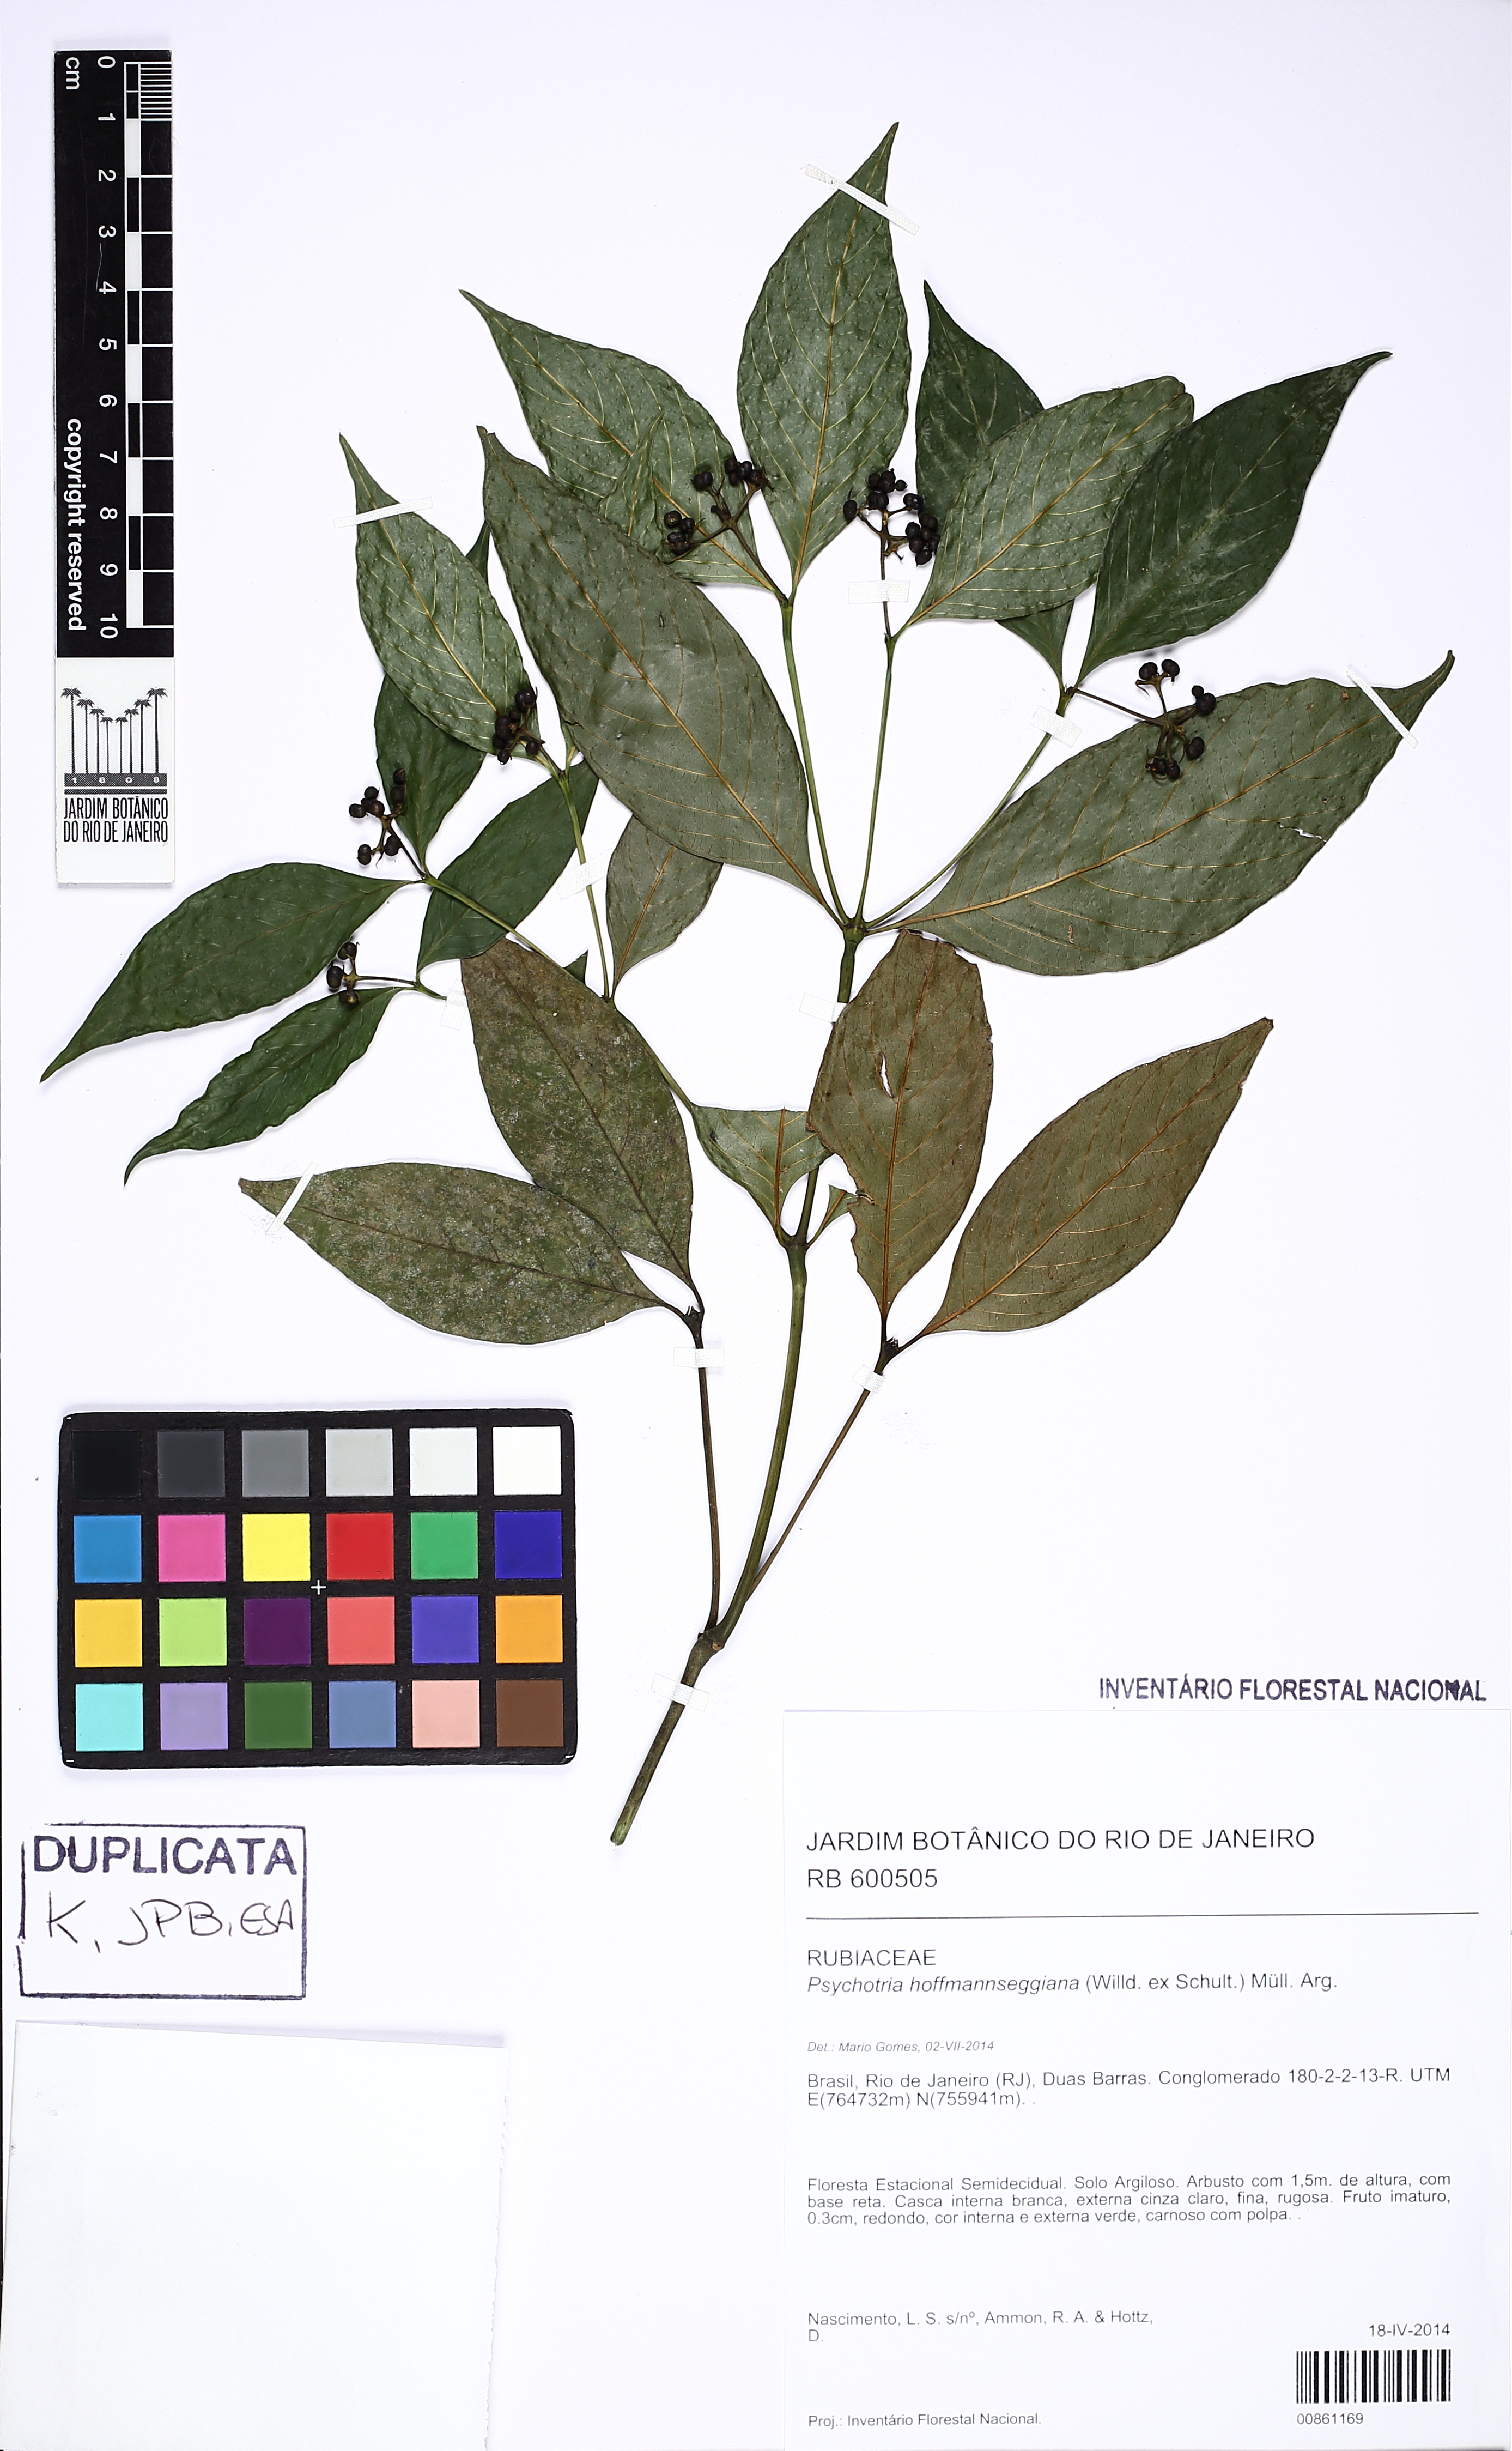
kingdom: Plantae
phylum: Tracheophyta
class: Magnoliopsida
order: Gentianales
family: Rubiaceae
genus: Palicourea
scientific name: Palicourea tenerior
